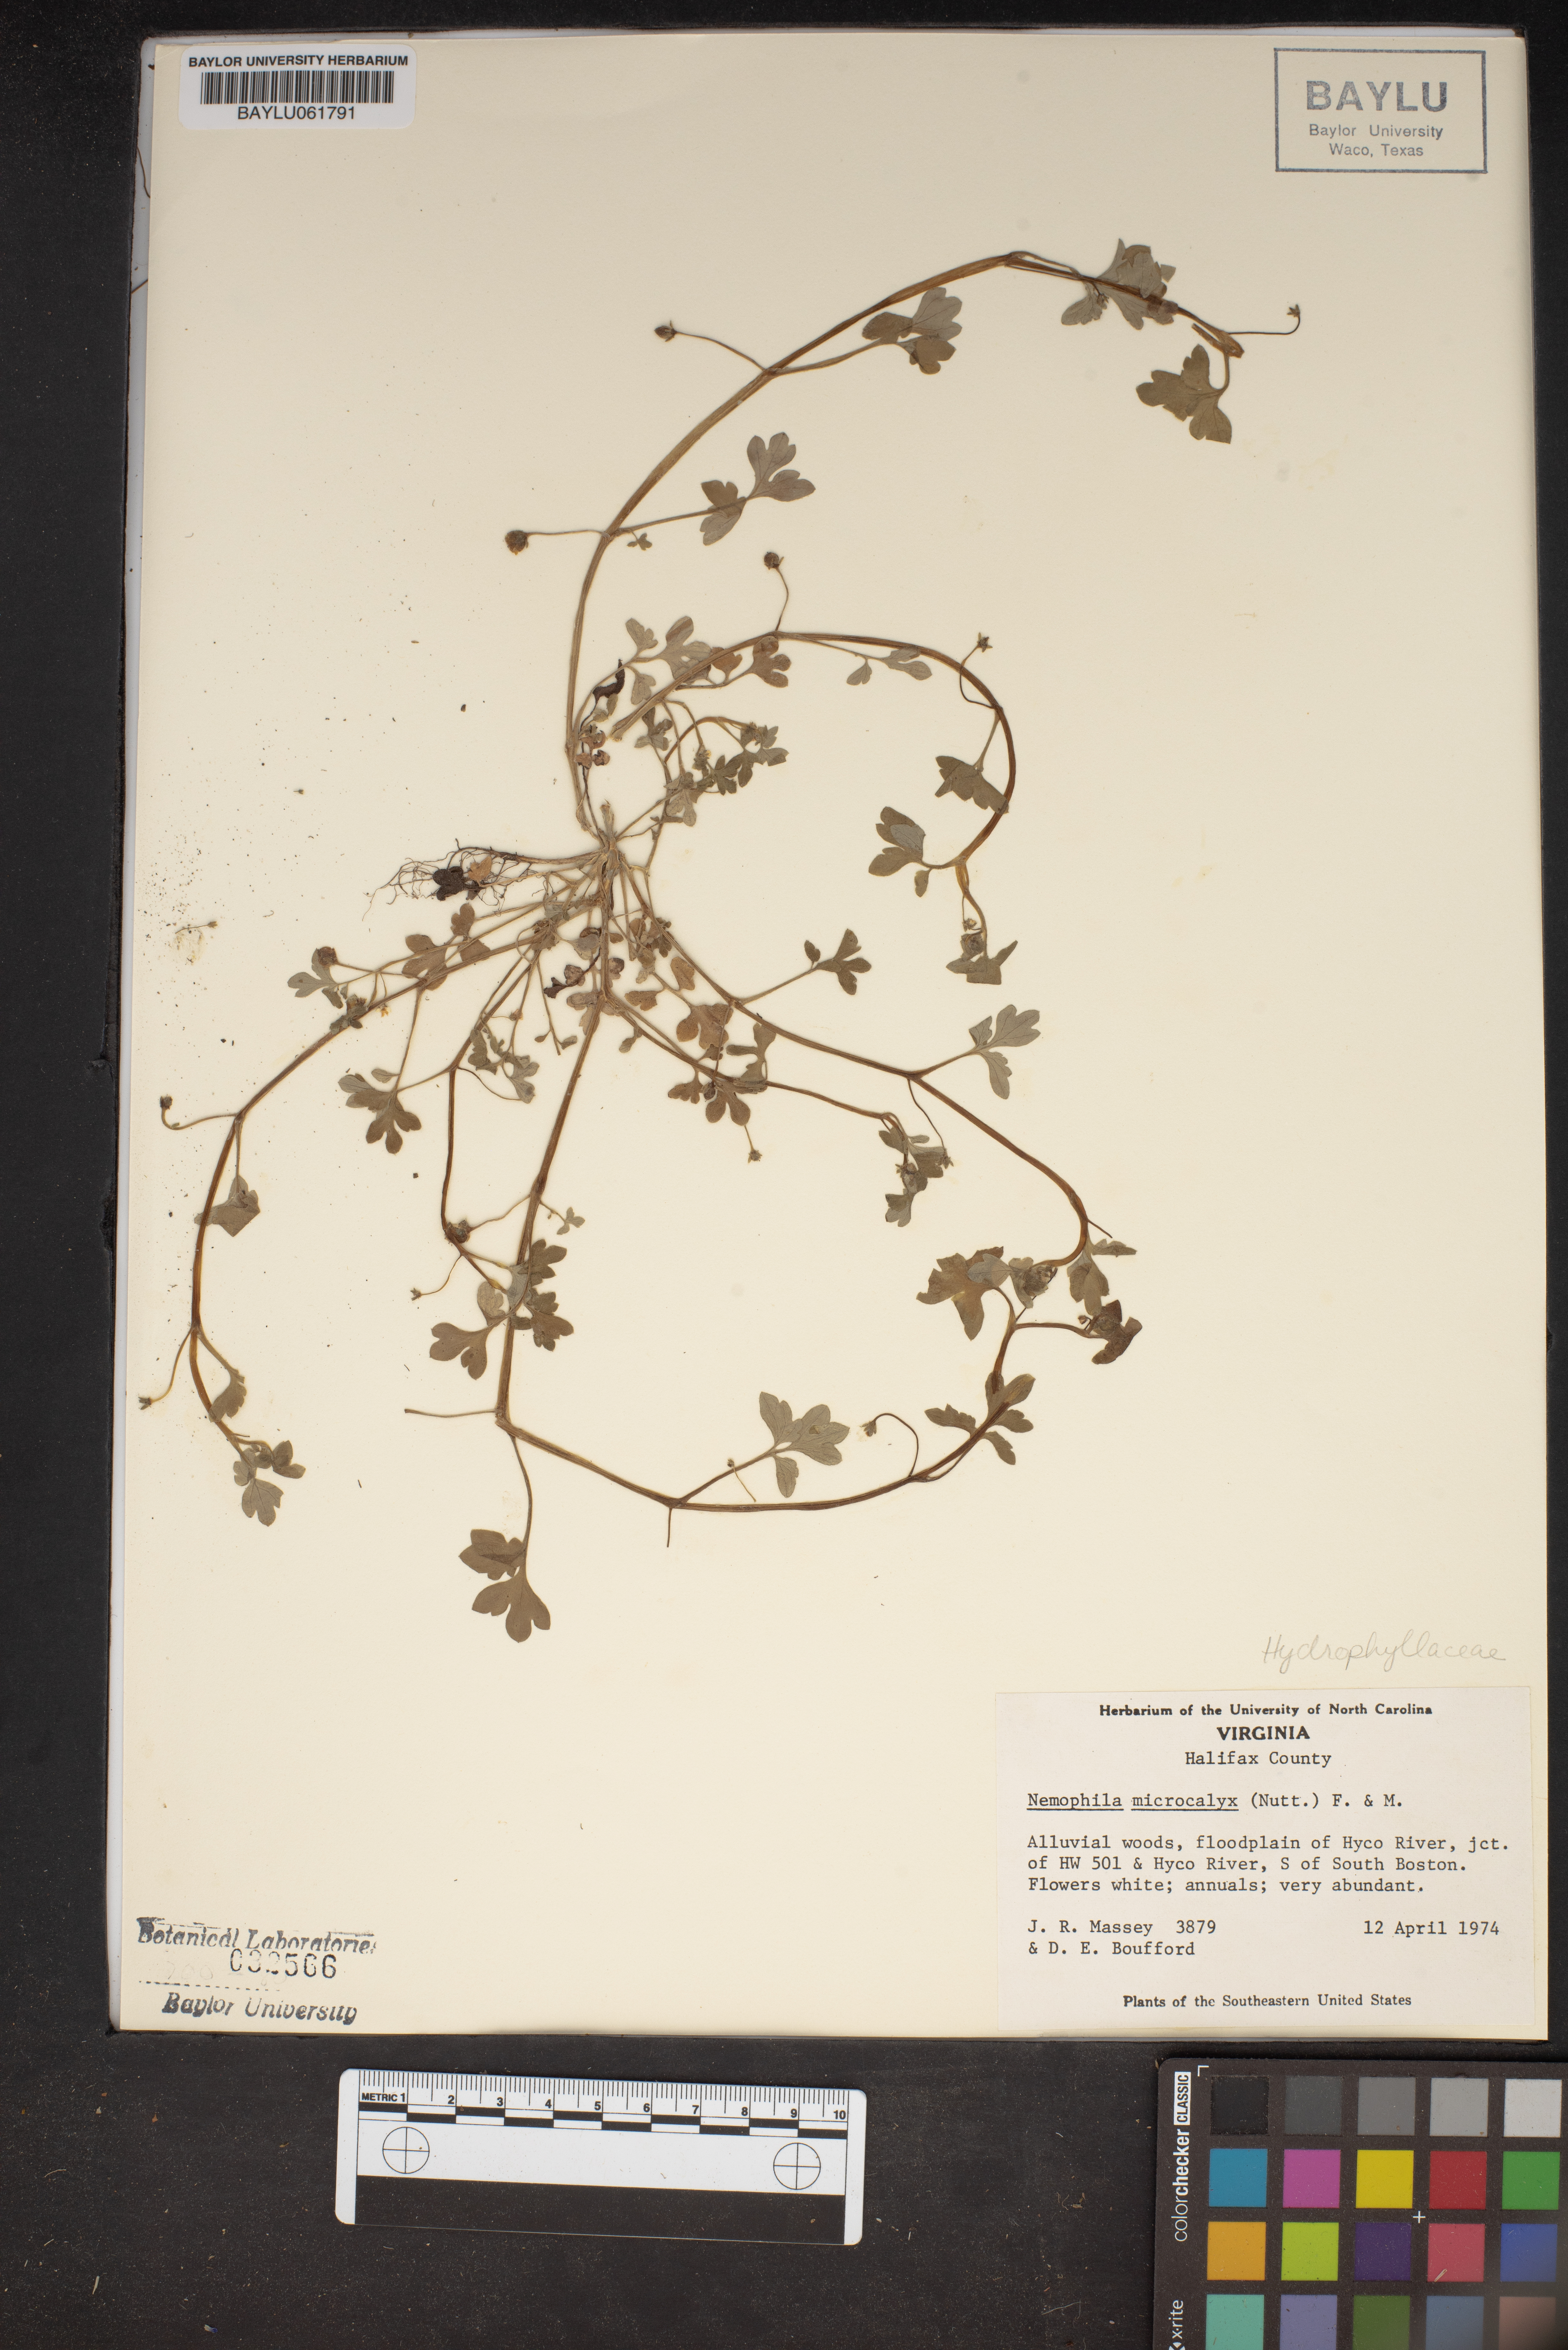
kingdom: Plantae
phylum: Tracheophyta
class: Magnoliopsida
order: Boraginales
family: Hydrophyllaceae
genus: Nemophila
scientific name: Nemophila aphylla
